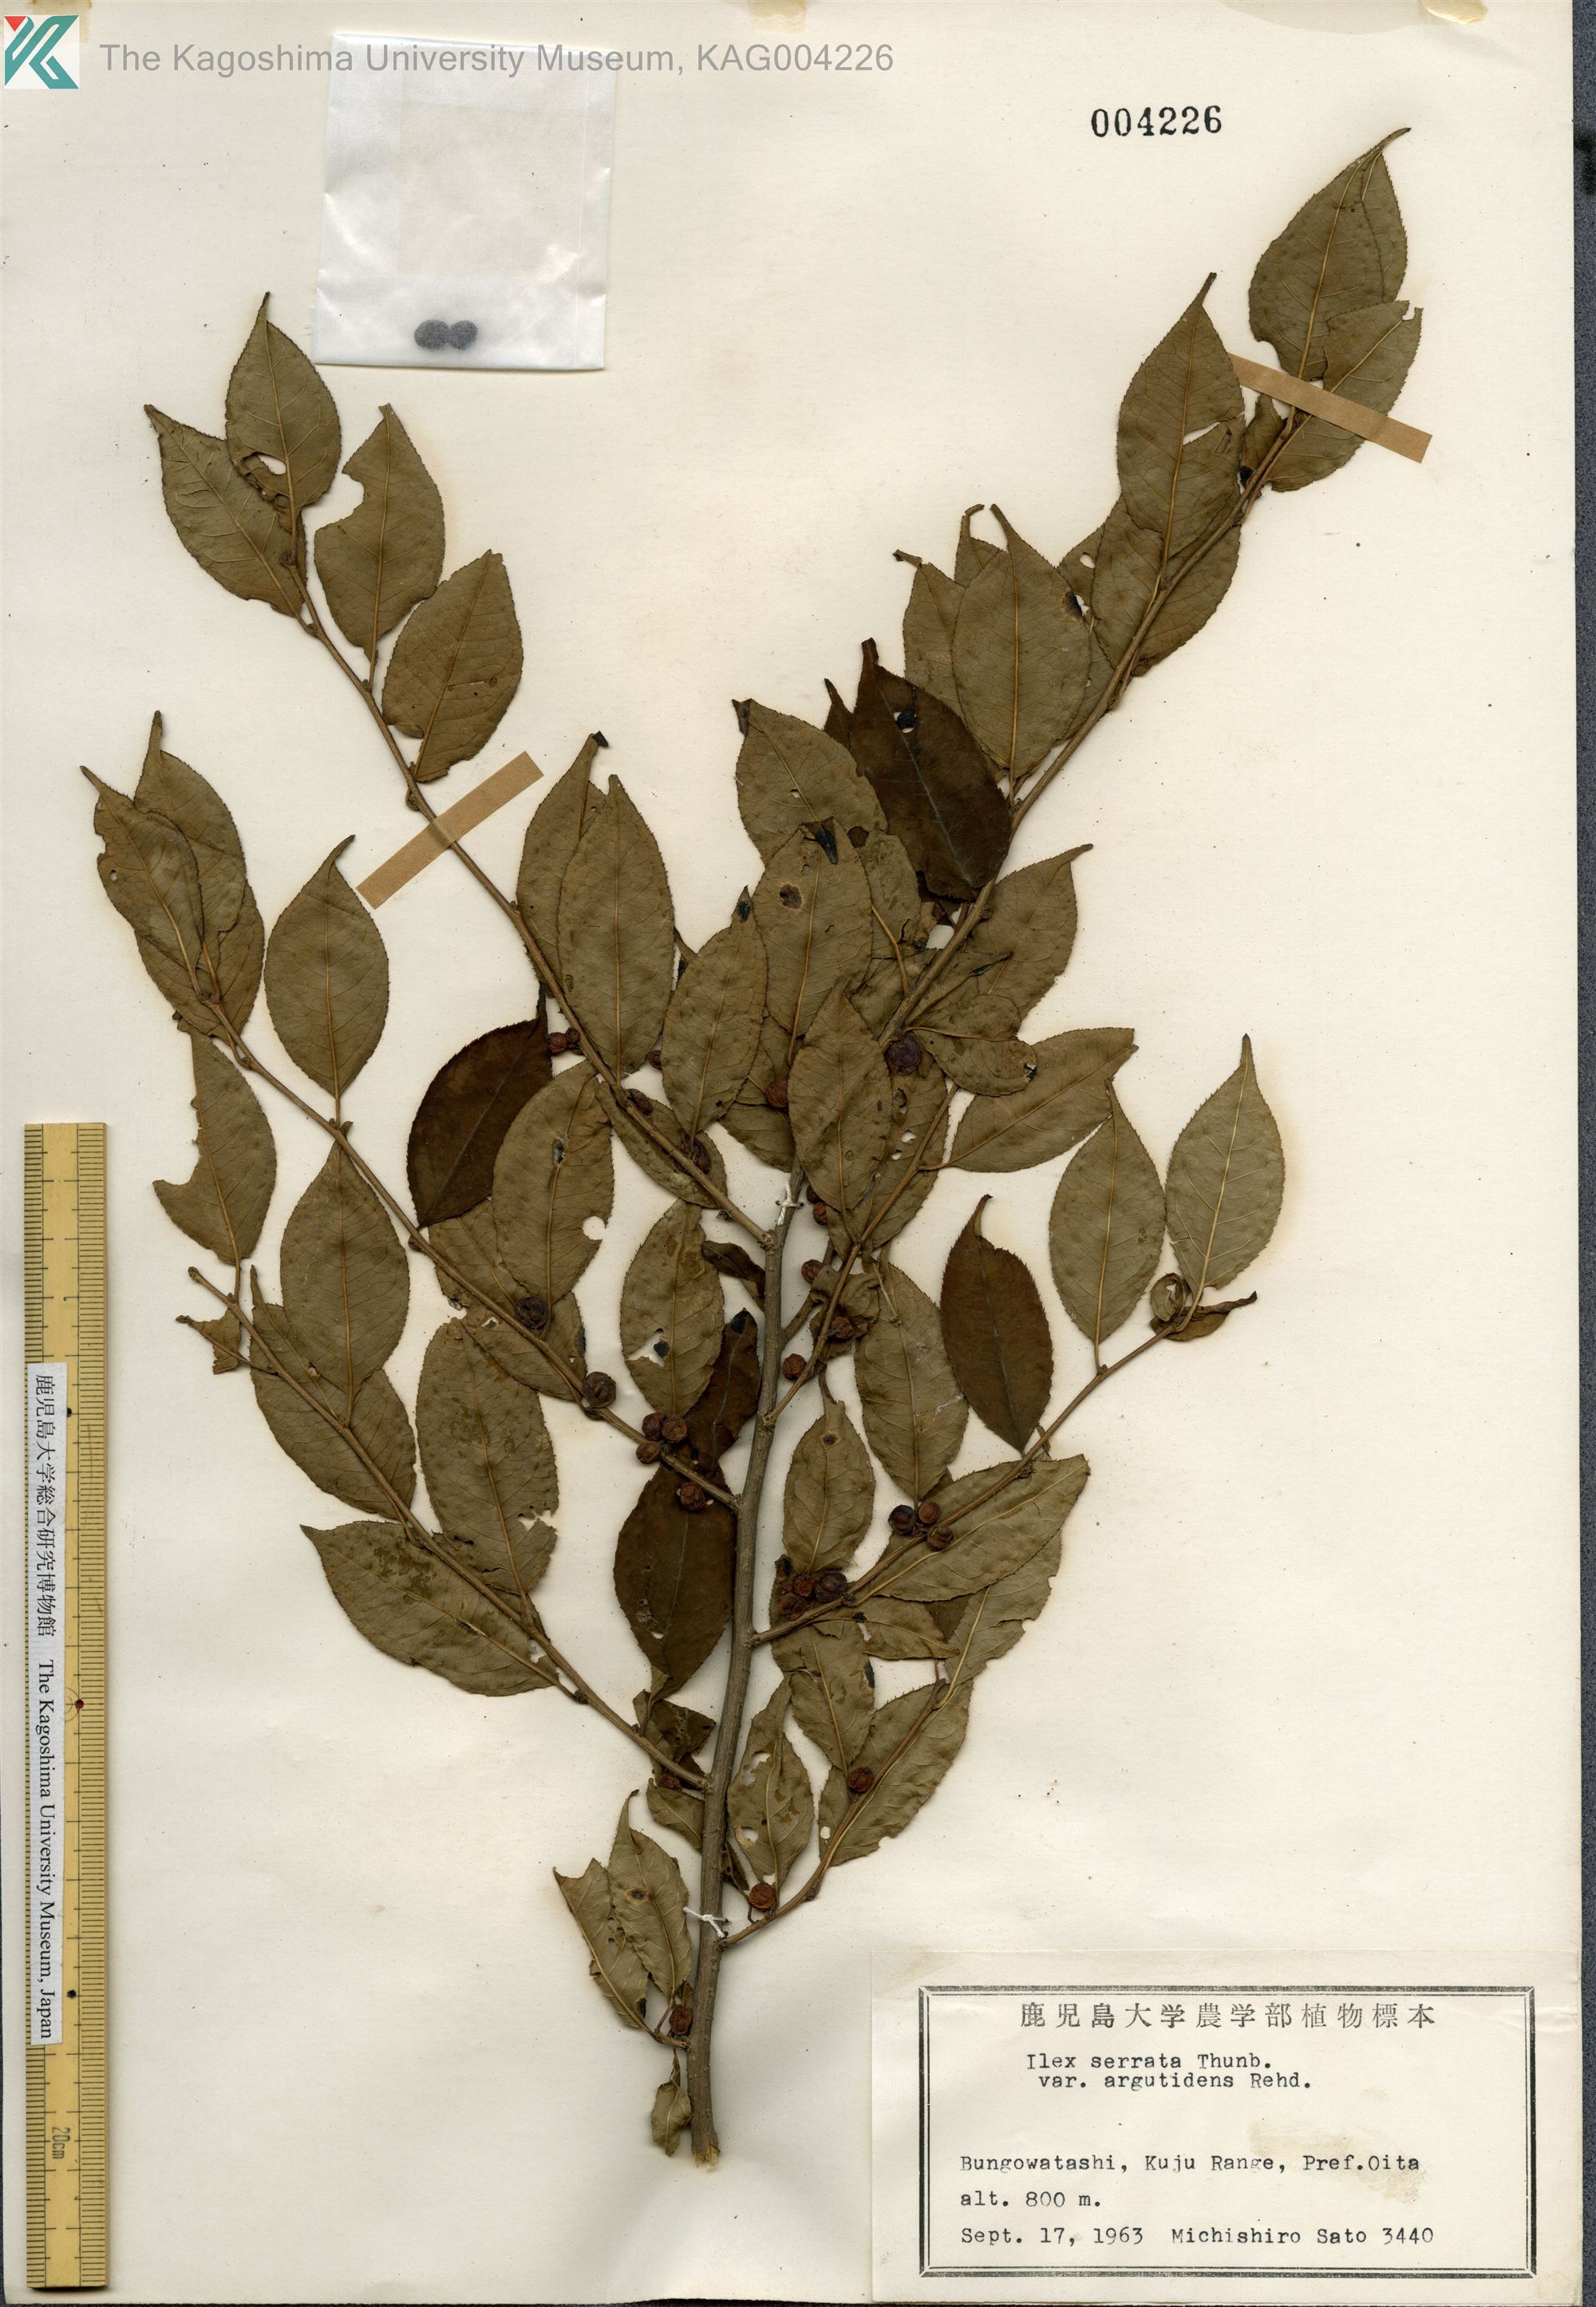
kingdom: Plantae
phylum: Tracheophyta
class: Magnoliopsida
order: Aquifoliales
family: Aquifoliaceae
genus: Ilex
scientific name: Ilex serrata
